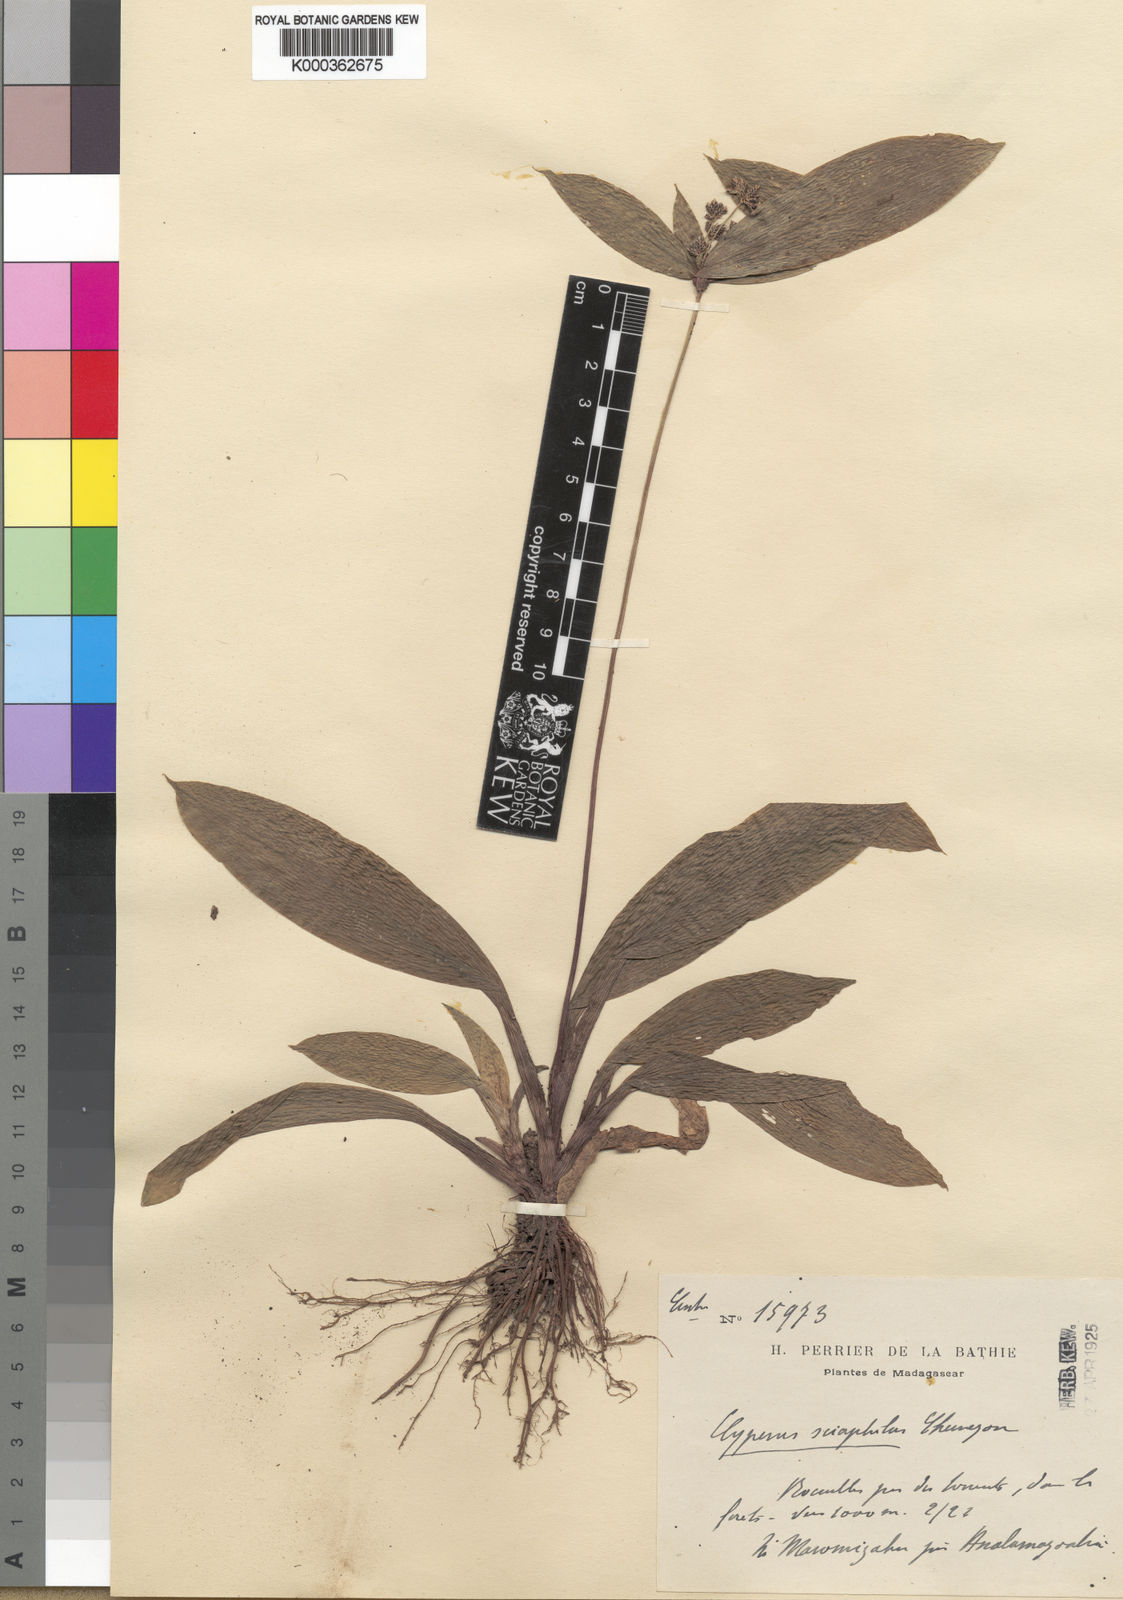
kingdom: Plantae
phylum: Tracheophyta
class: Liliopsida
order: Poales
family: Cyperaceae
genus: Cyperus
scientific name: Cyperus sciaphilus
